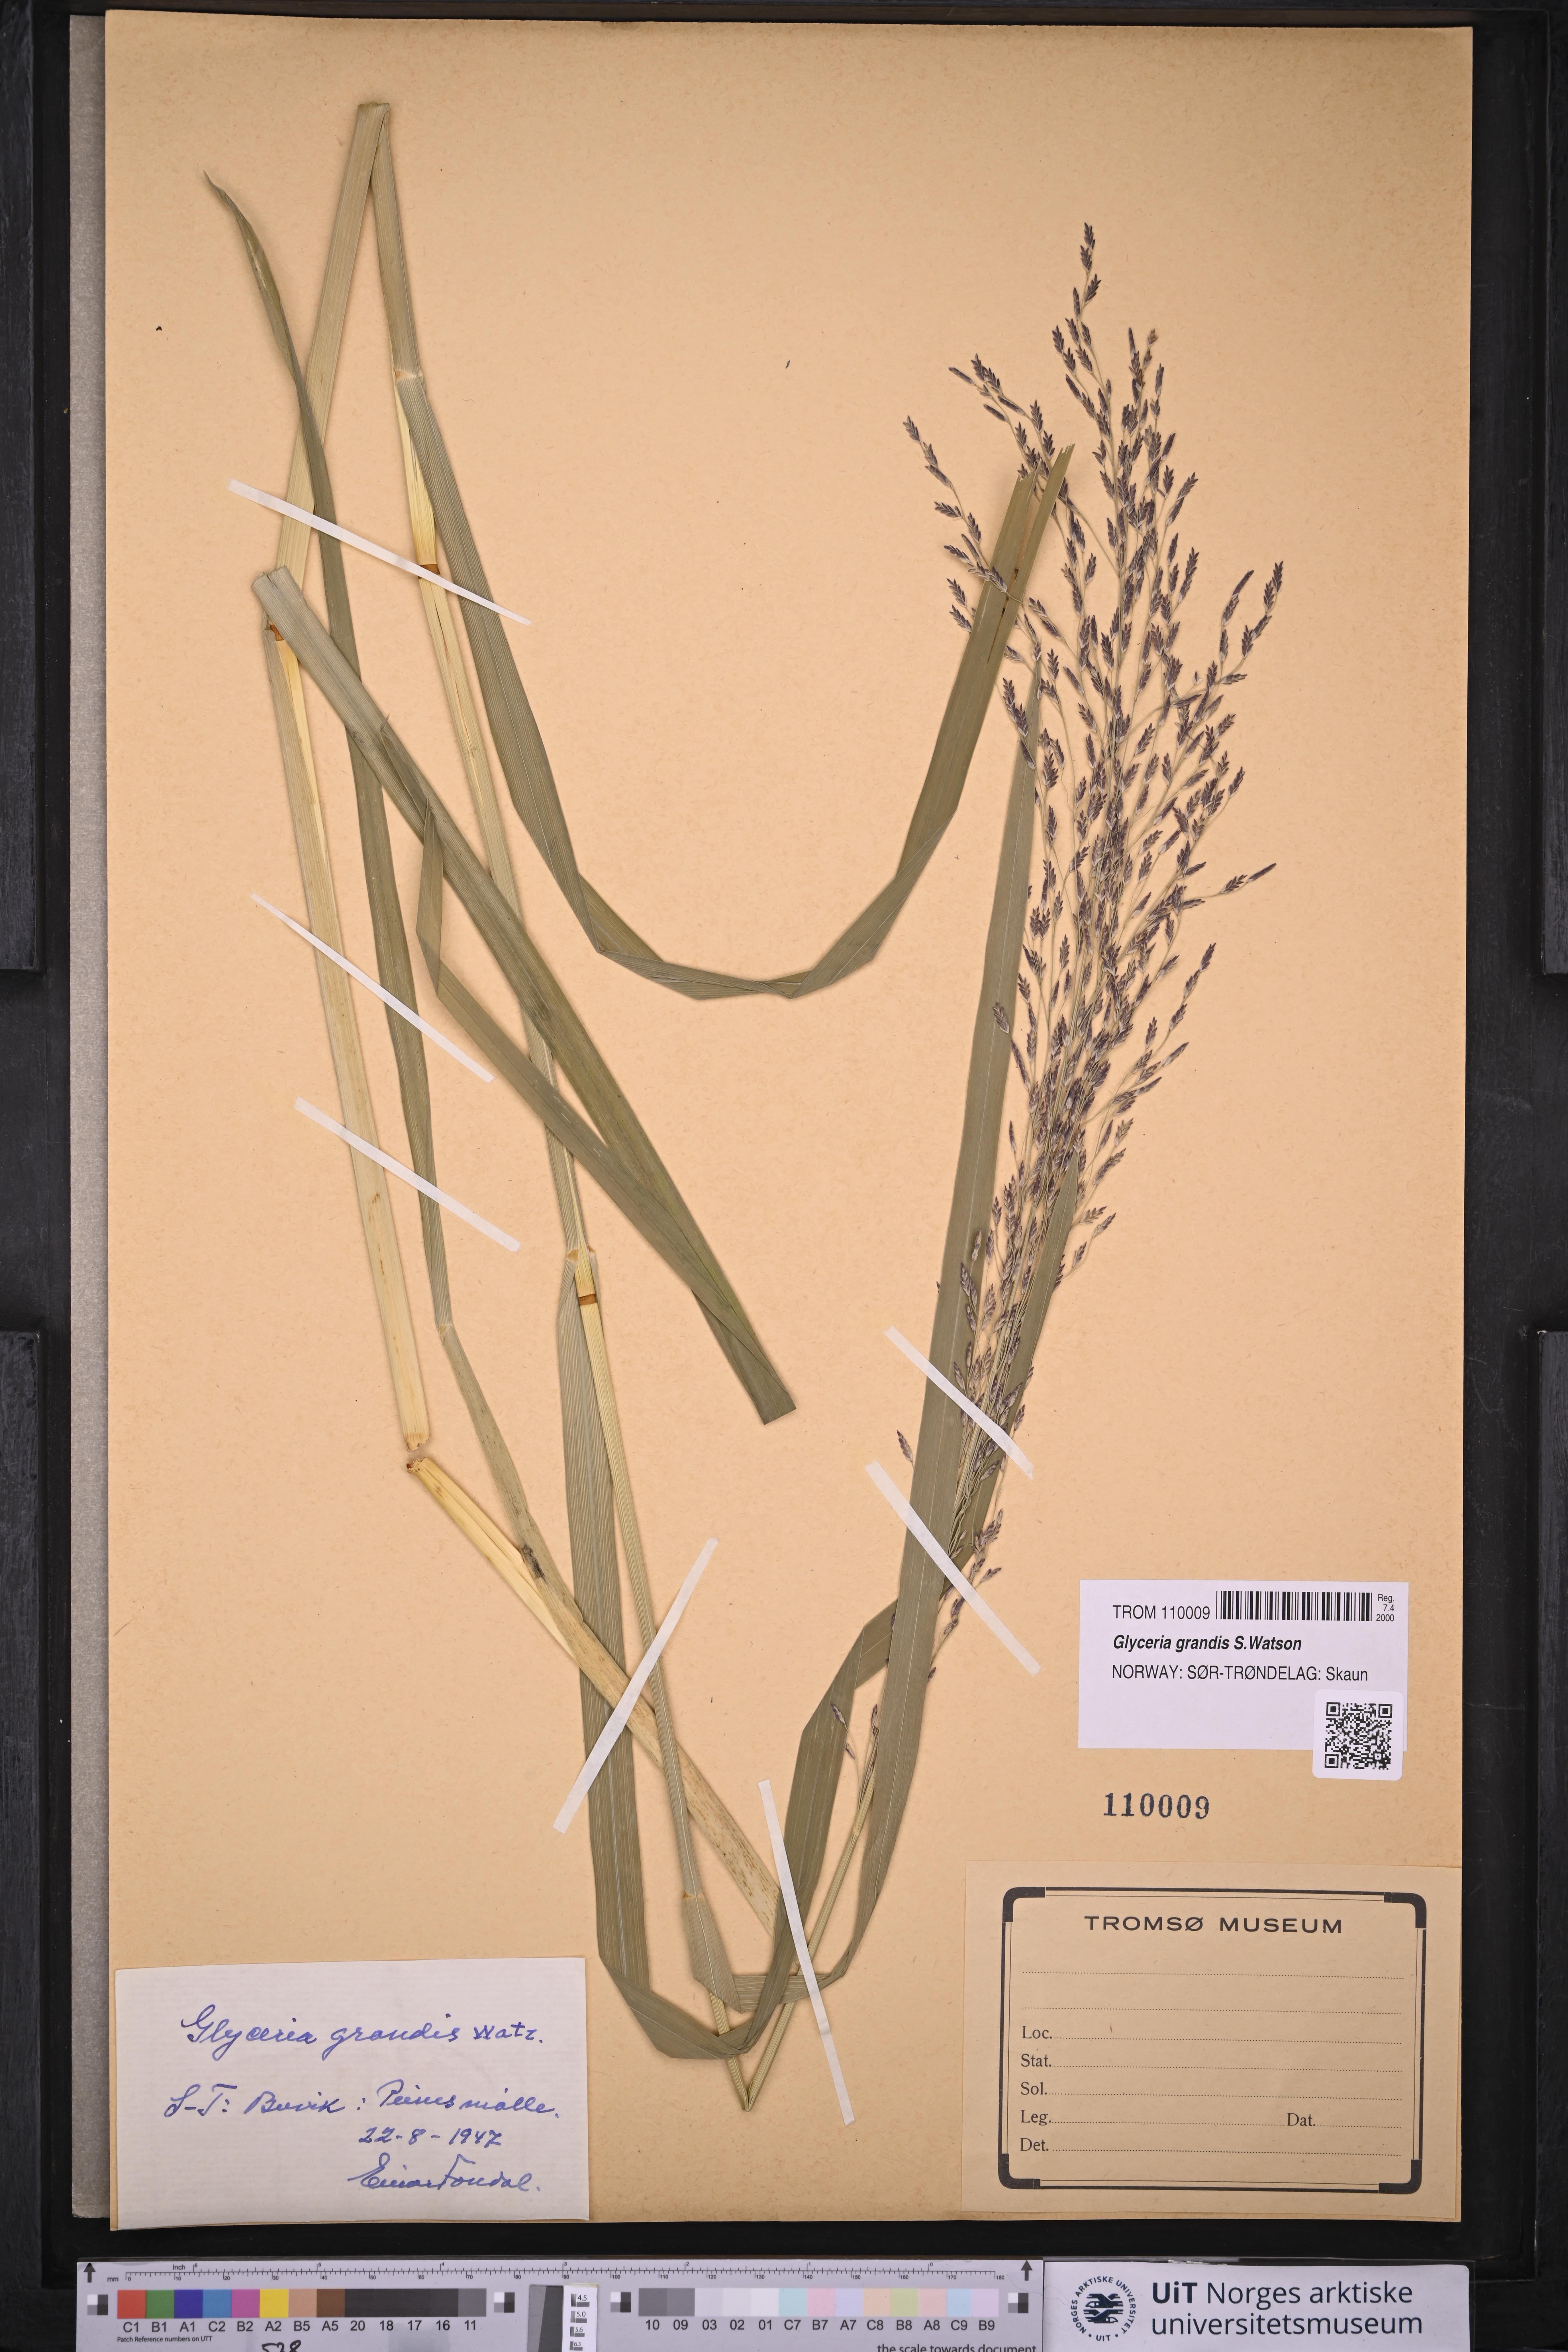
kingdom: Plantae
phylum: Tracheophyta
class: Liliopsida
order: Poales
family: Poaceae
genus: Glyceria
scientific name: Glyceria grandis
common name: American glyceria
